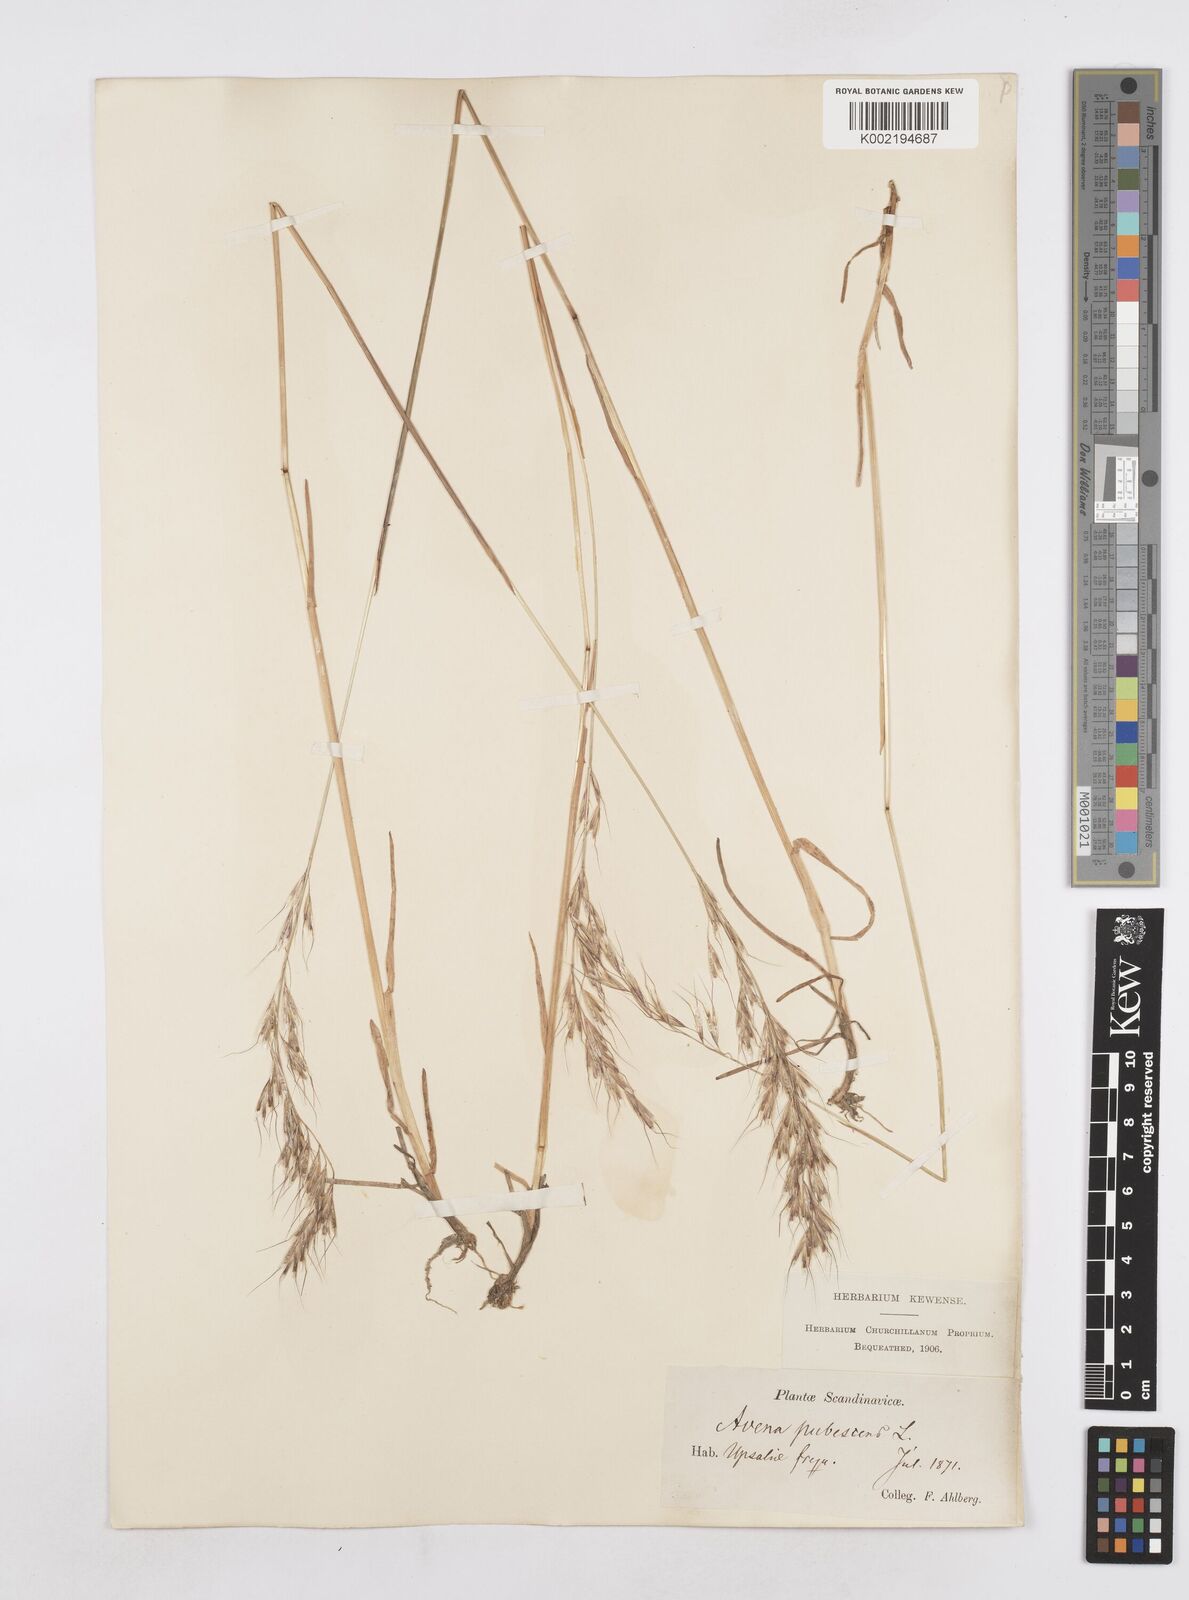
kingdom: Plantae
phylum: Tracheophyta
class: Liliopsida
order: Poales
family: Poaceae
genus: Avenula
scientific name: Avenula pubescens
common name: Downy alpine oatgrass
